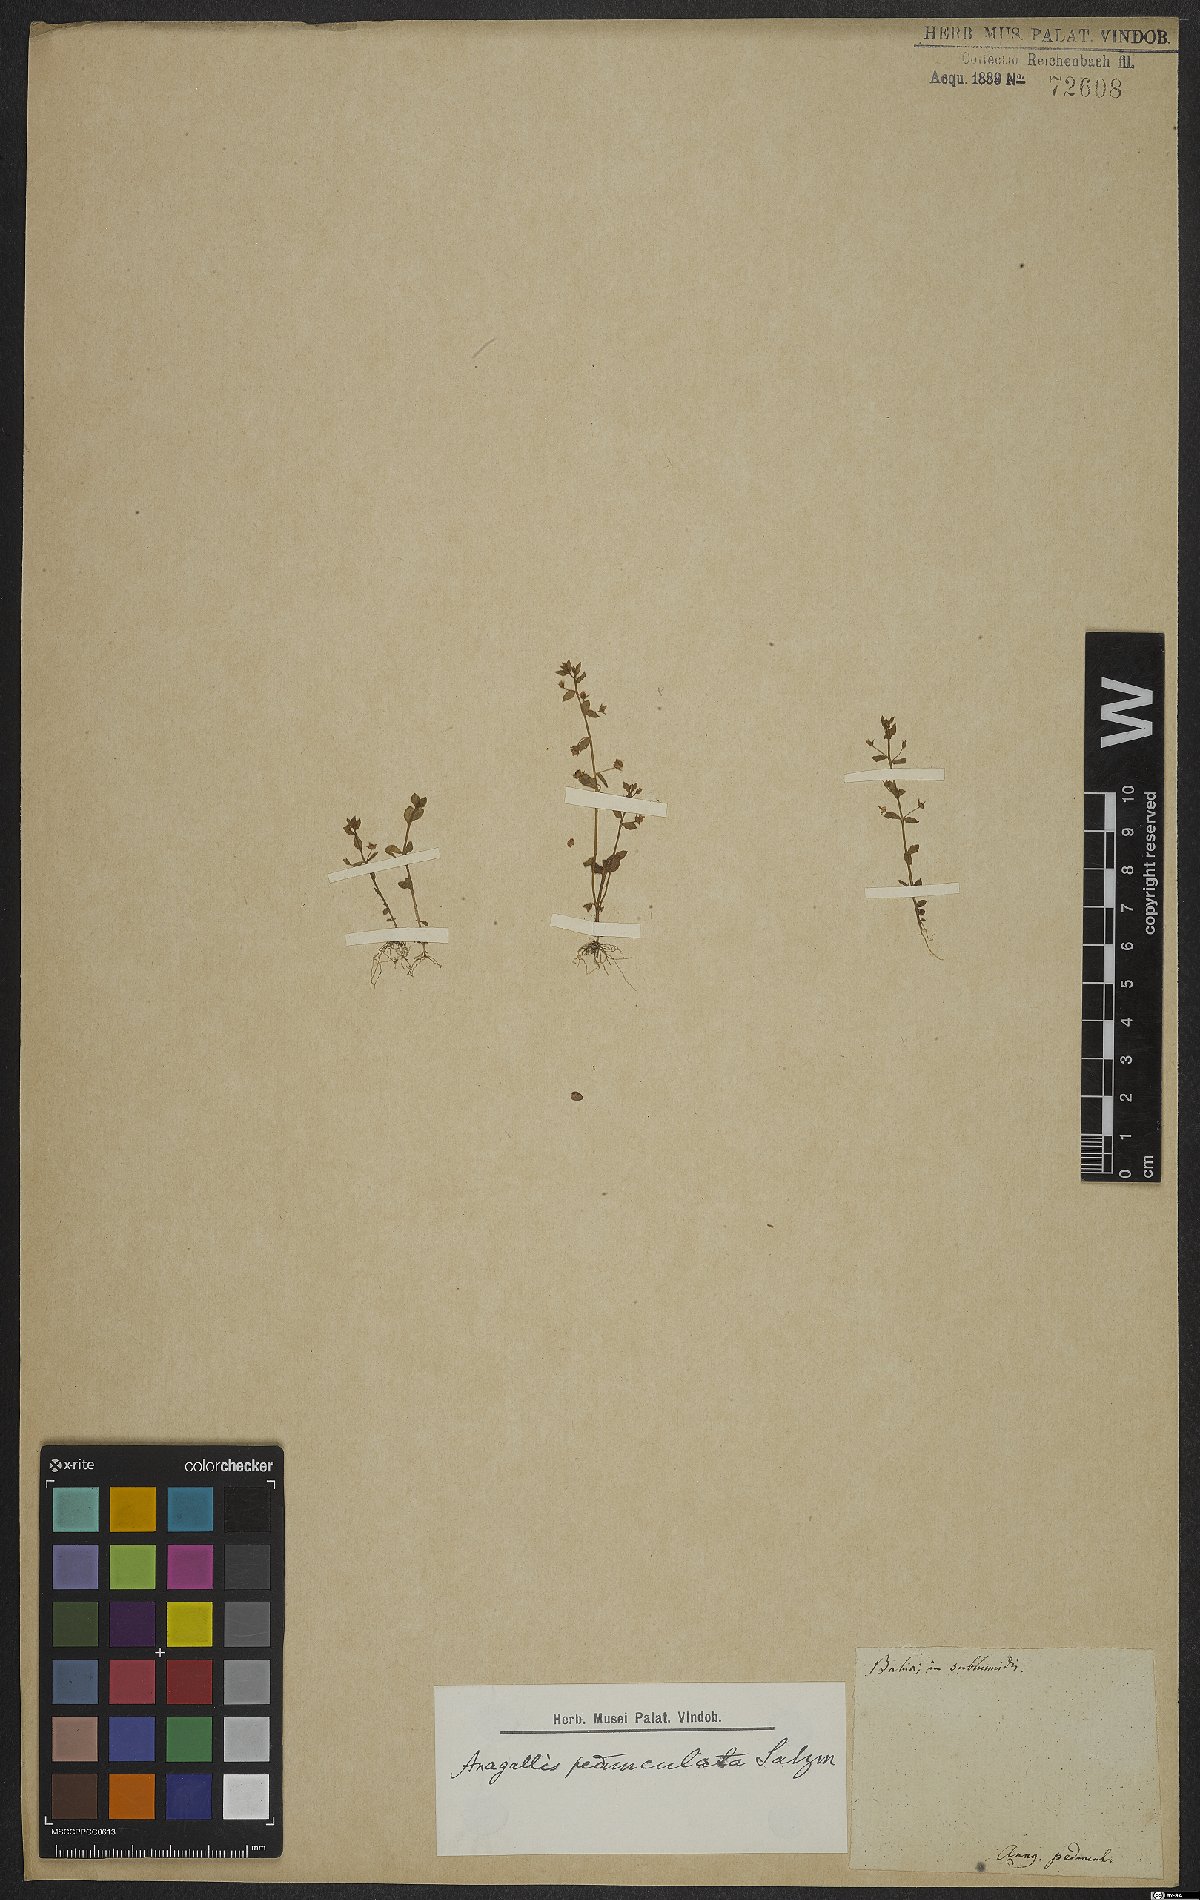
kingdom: Plantae
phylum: Tracheophyta
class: Magnoliopsida
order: Ericales
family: Primulaceae
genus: Lysimachia
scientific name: Lysimachia ovalis
